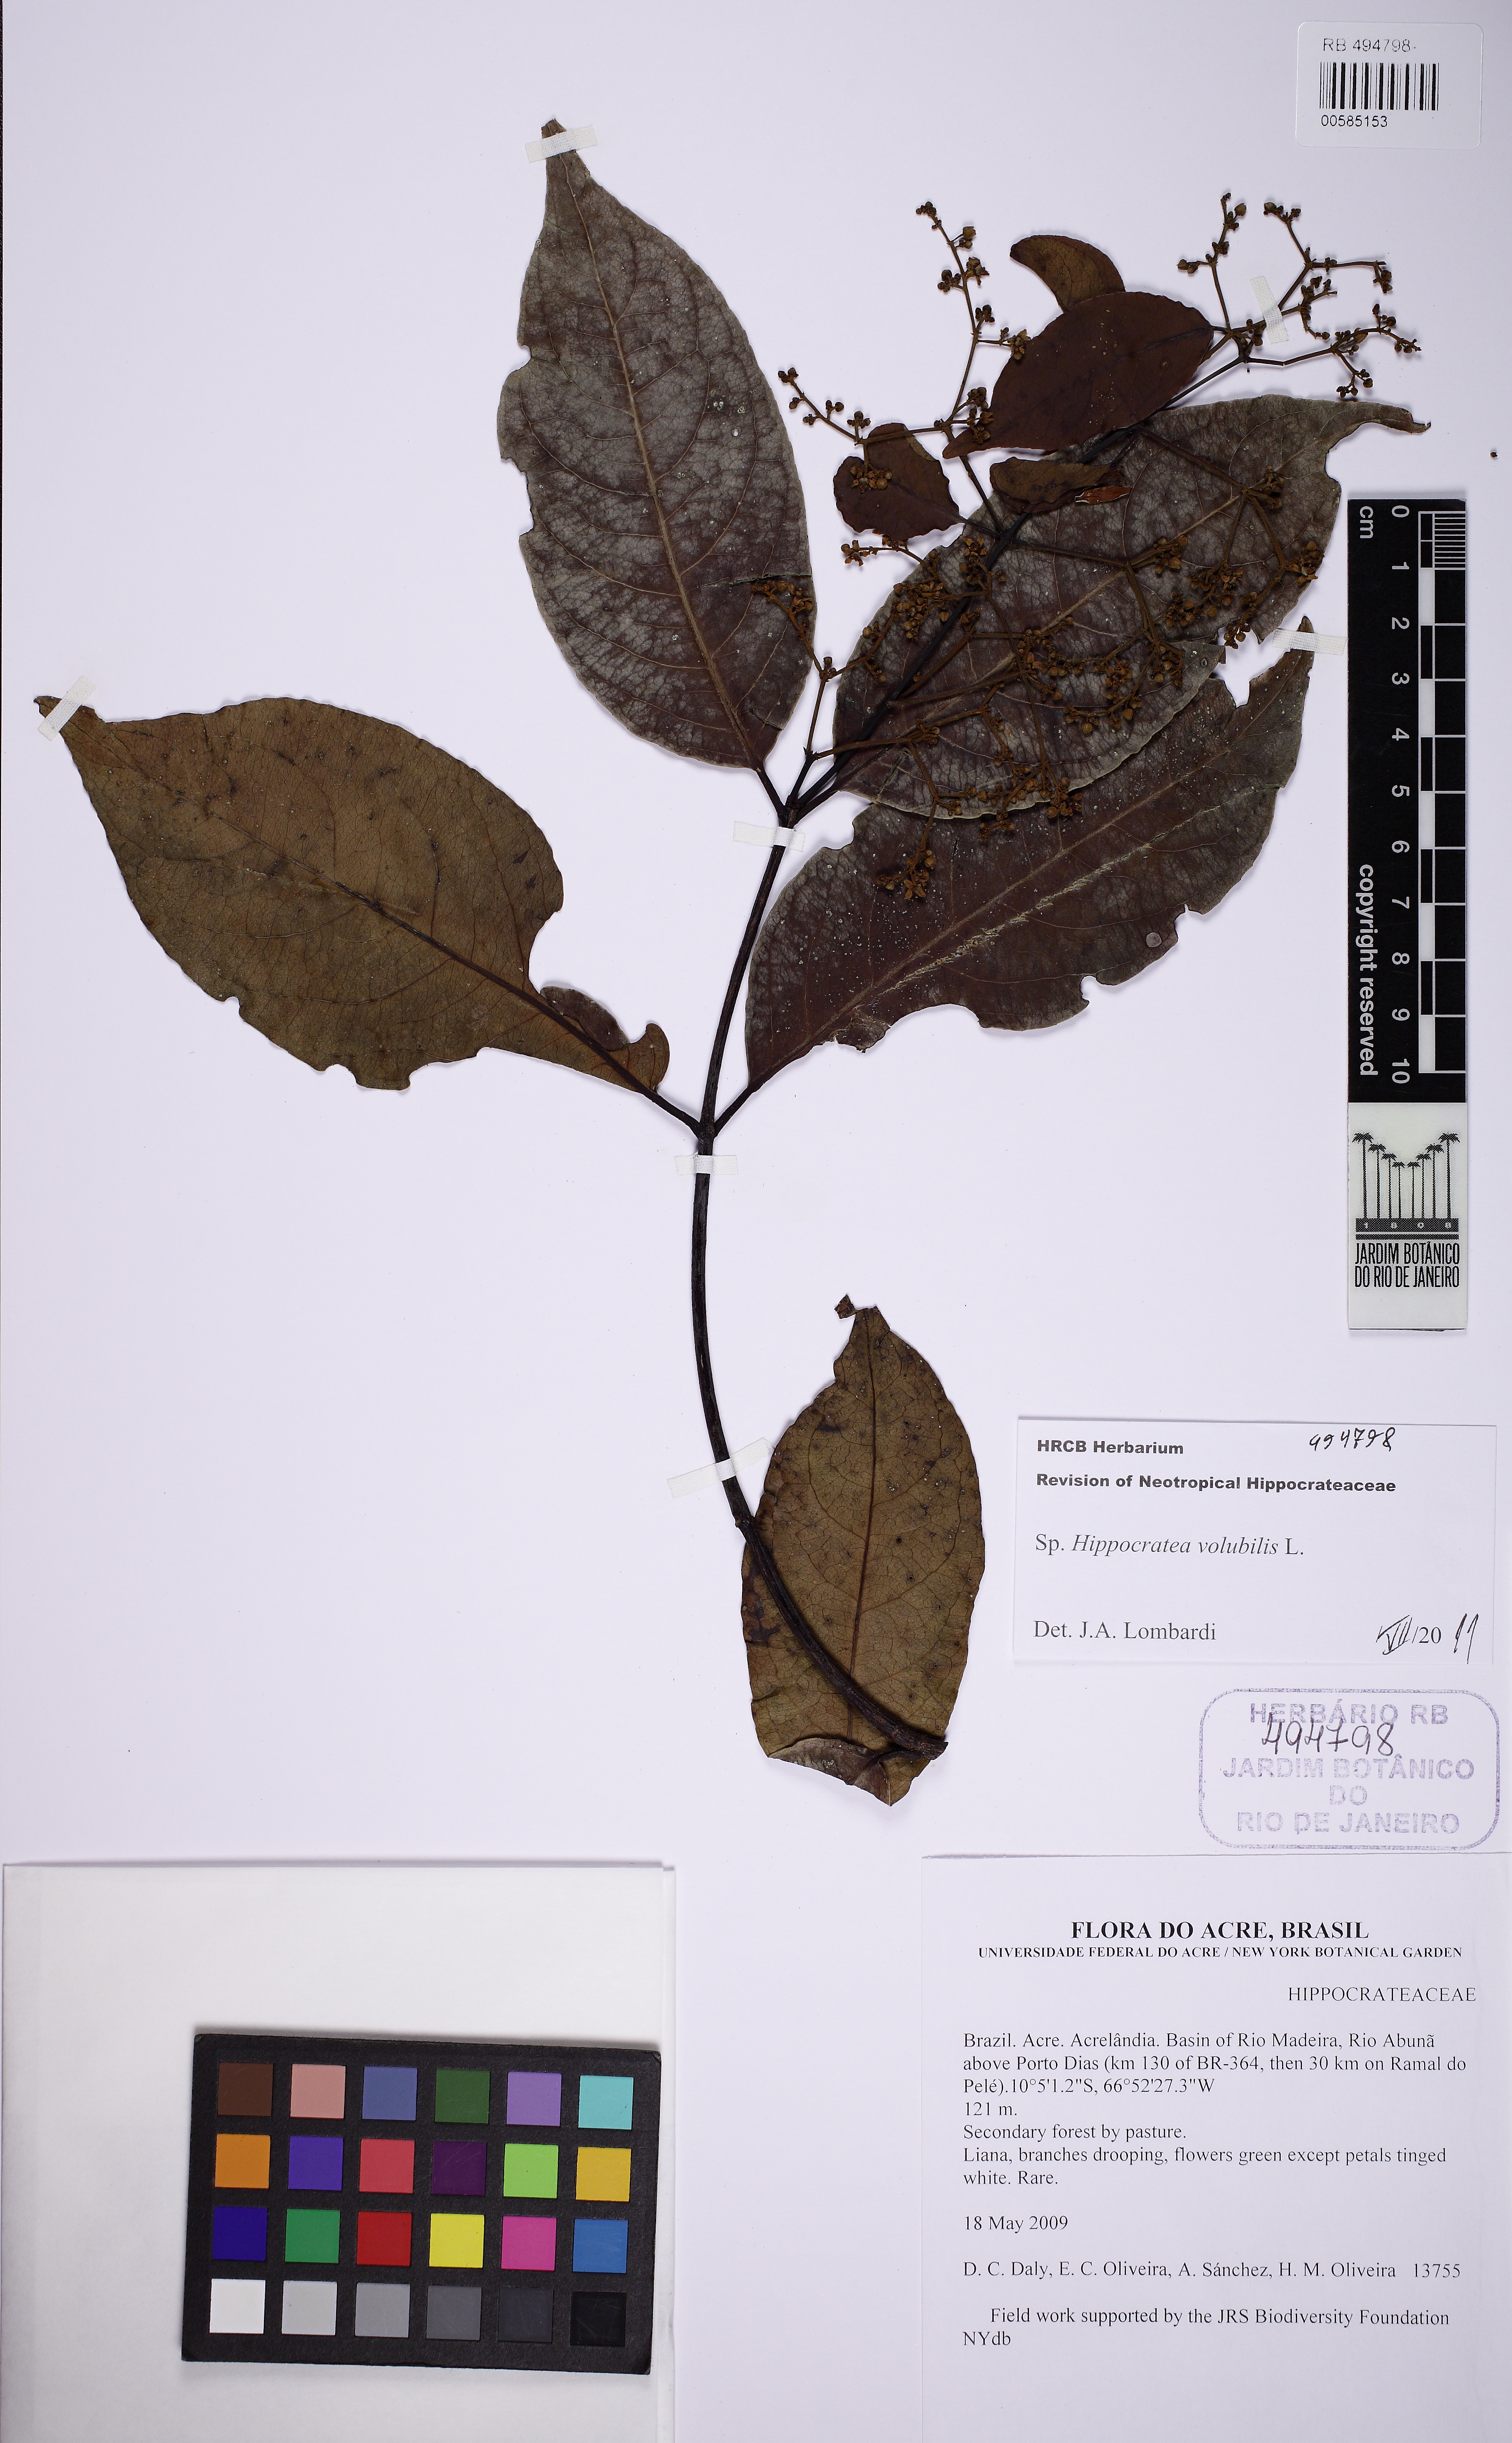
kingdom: Plantae
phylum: Tracheophyta
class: Magnoliopsida
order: Celastrales
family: Celastraceae
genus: Hippocratea
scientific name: Hippocratea volubilis
